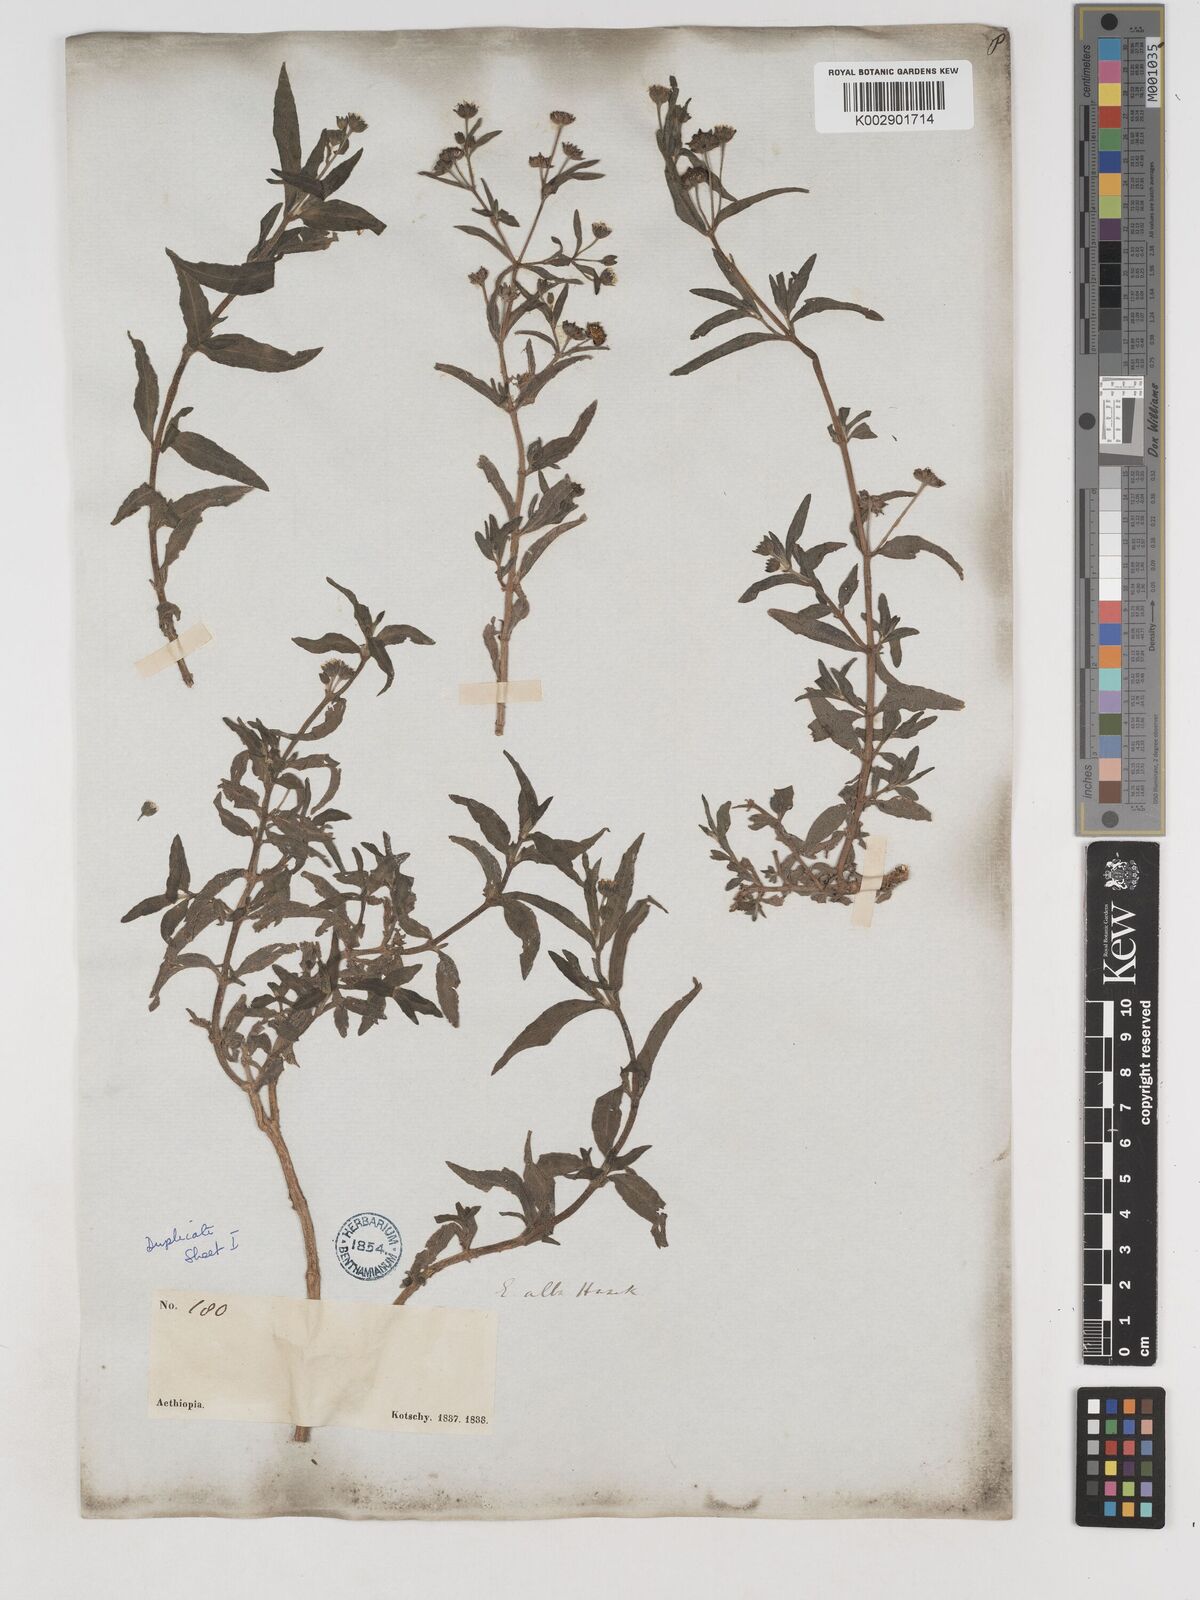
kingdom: Plantae
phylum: Tracheophyta
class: Magnoliopsida
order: Asterales
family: Asteraceae
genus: Eclipta
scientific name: Eclipta alba
